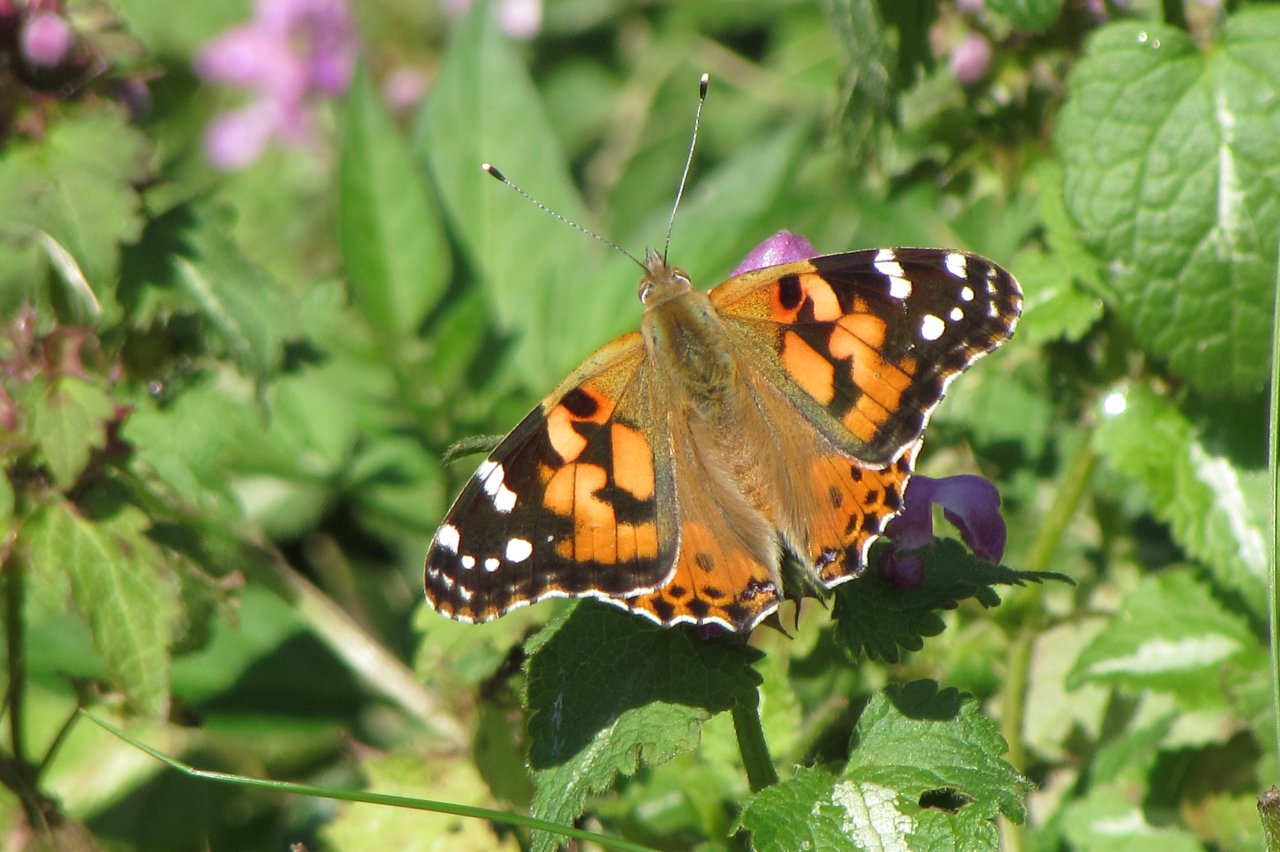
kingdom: Animalia
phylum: Arthropoda
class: Insecta
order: Lepidoptera
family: Nymphalidae
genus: Vanessa
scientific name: Vanessa cardui
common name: Painted Lady
